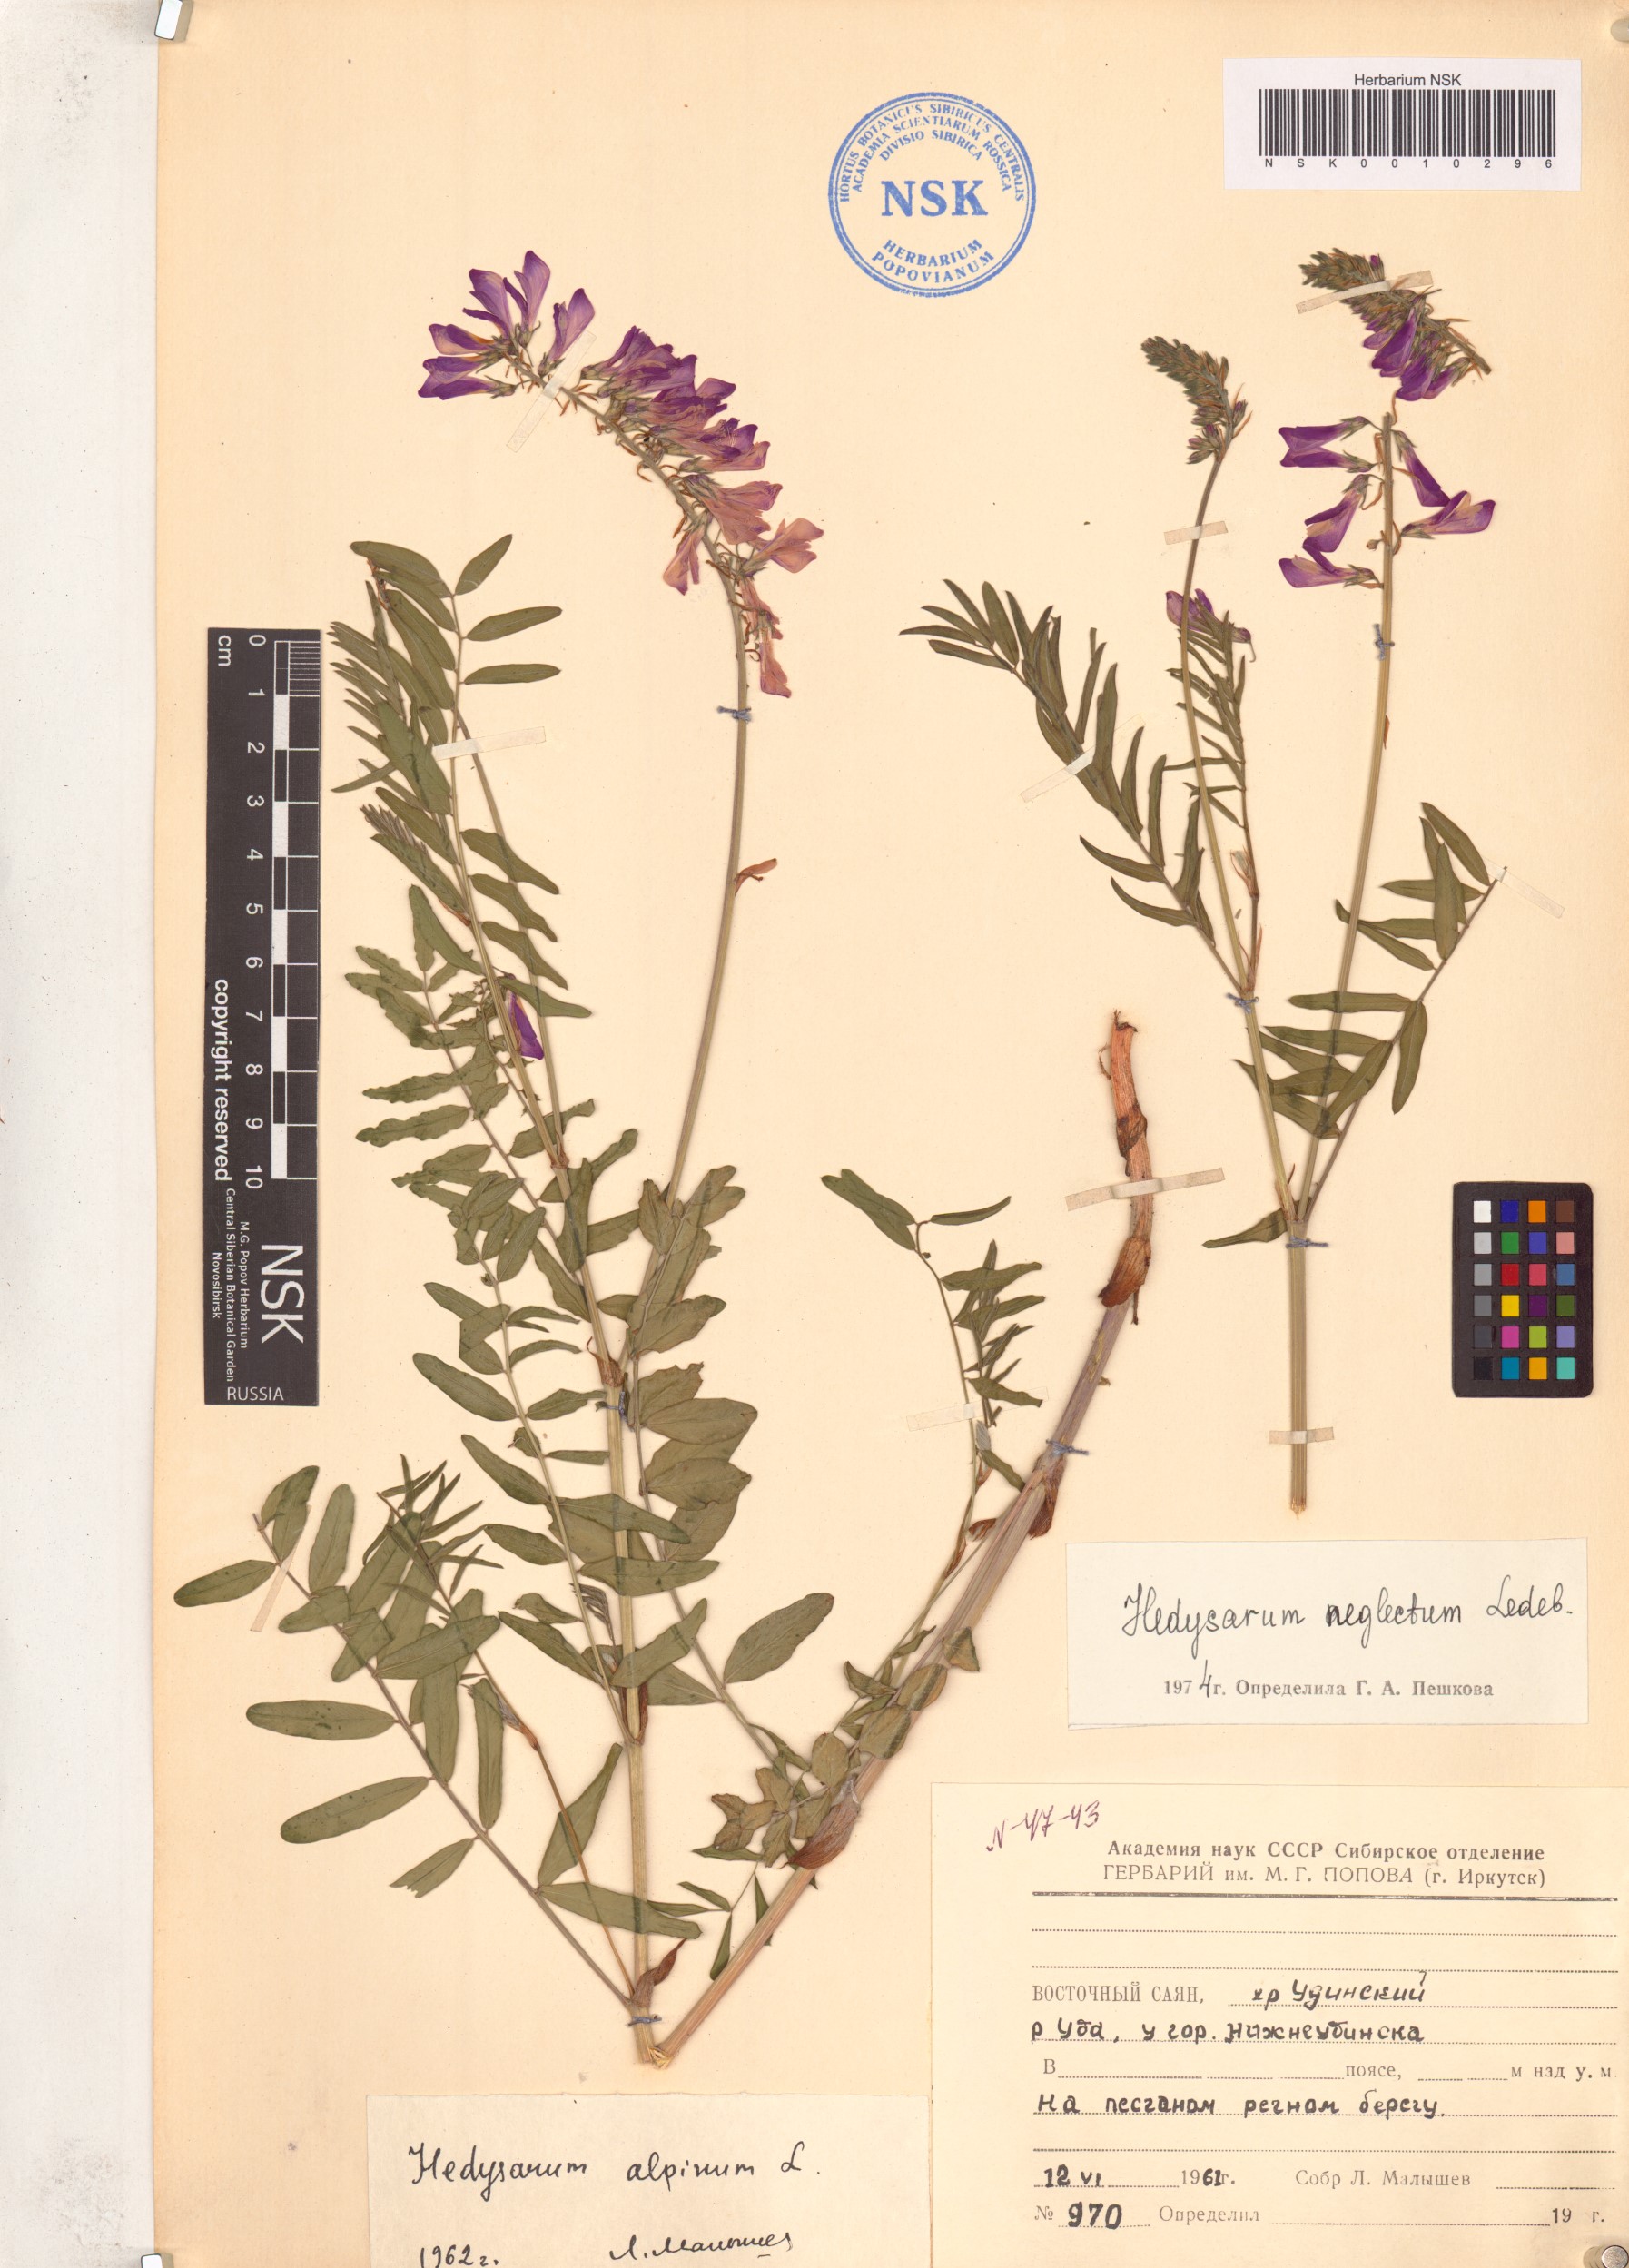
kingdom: Plantae
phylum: Tracheophyta
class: Magnoliopsida
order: Fabales
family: Fabaceae
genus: Hedysarum
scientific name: Hedysarum neglectum
